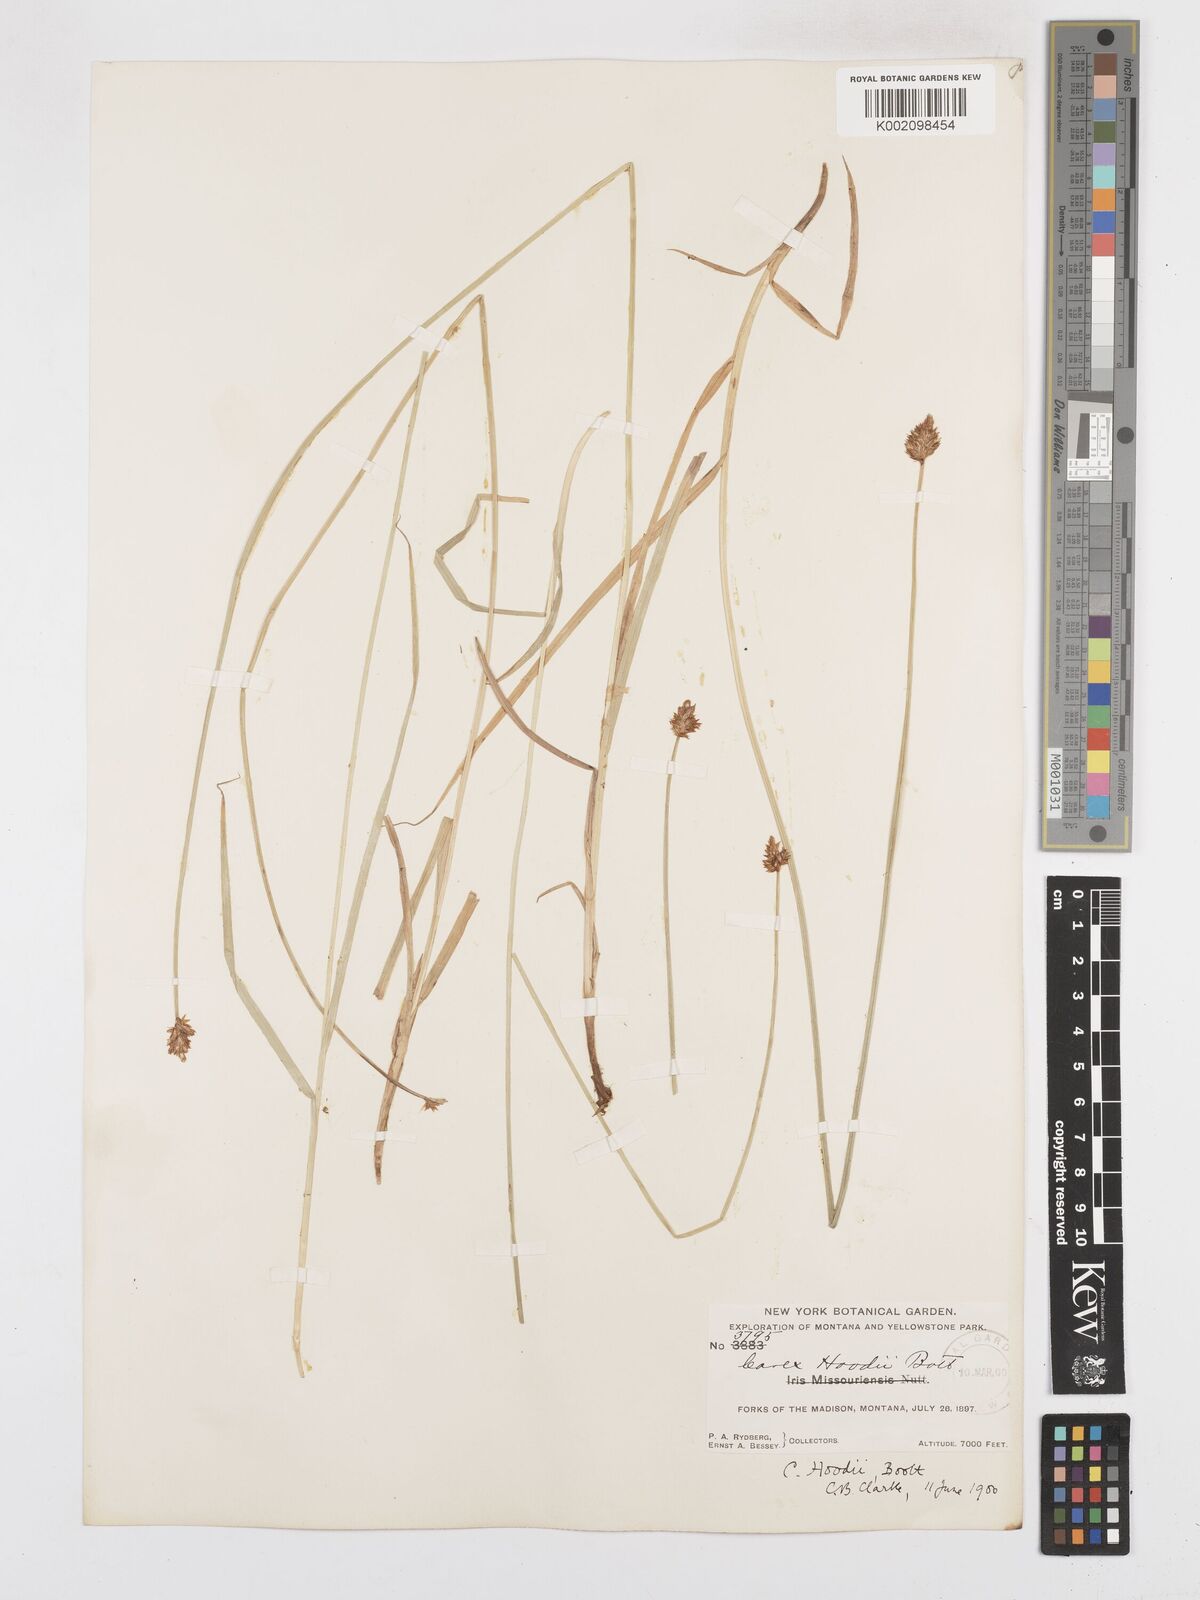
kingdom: Plantae
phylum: Tracheophyta
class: Liliopsida
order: Poales
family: Cyperaceae
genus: Carex
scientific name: Carex hoodii
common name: Hood's sedge
